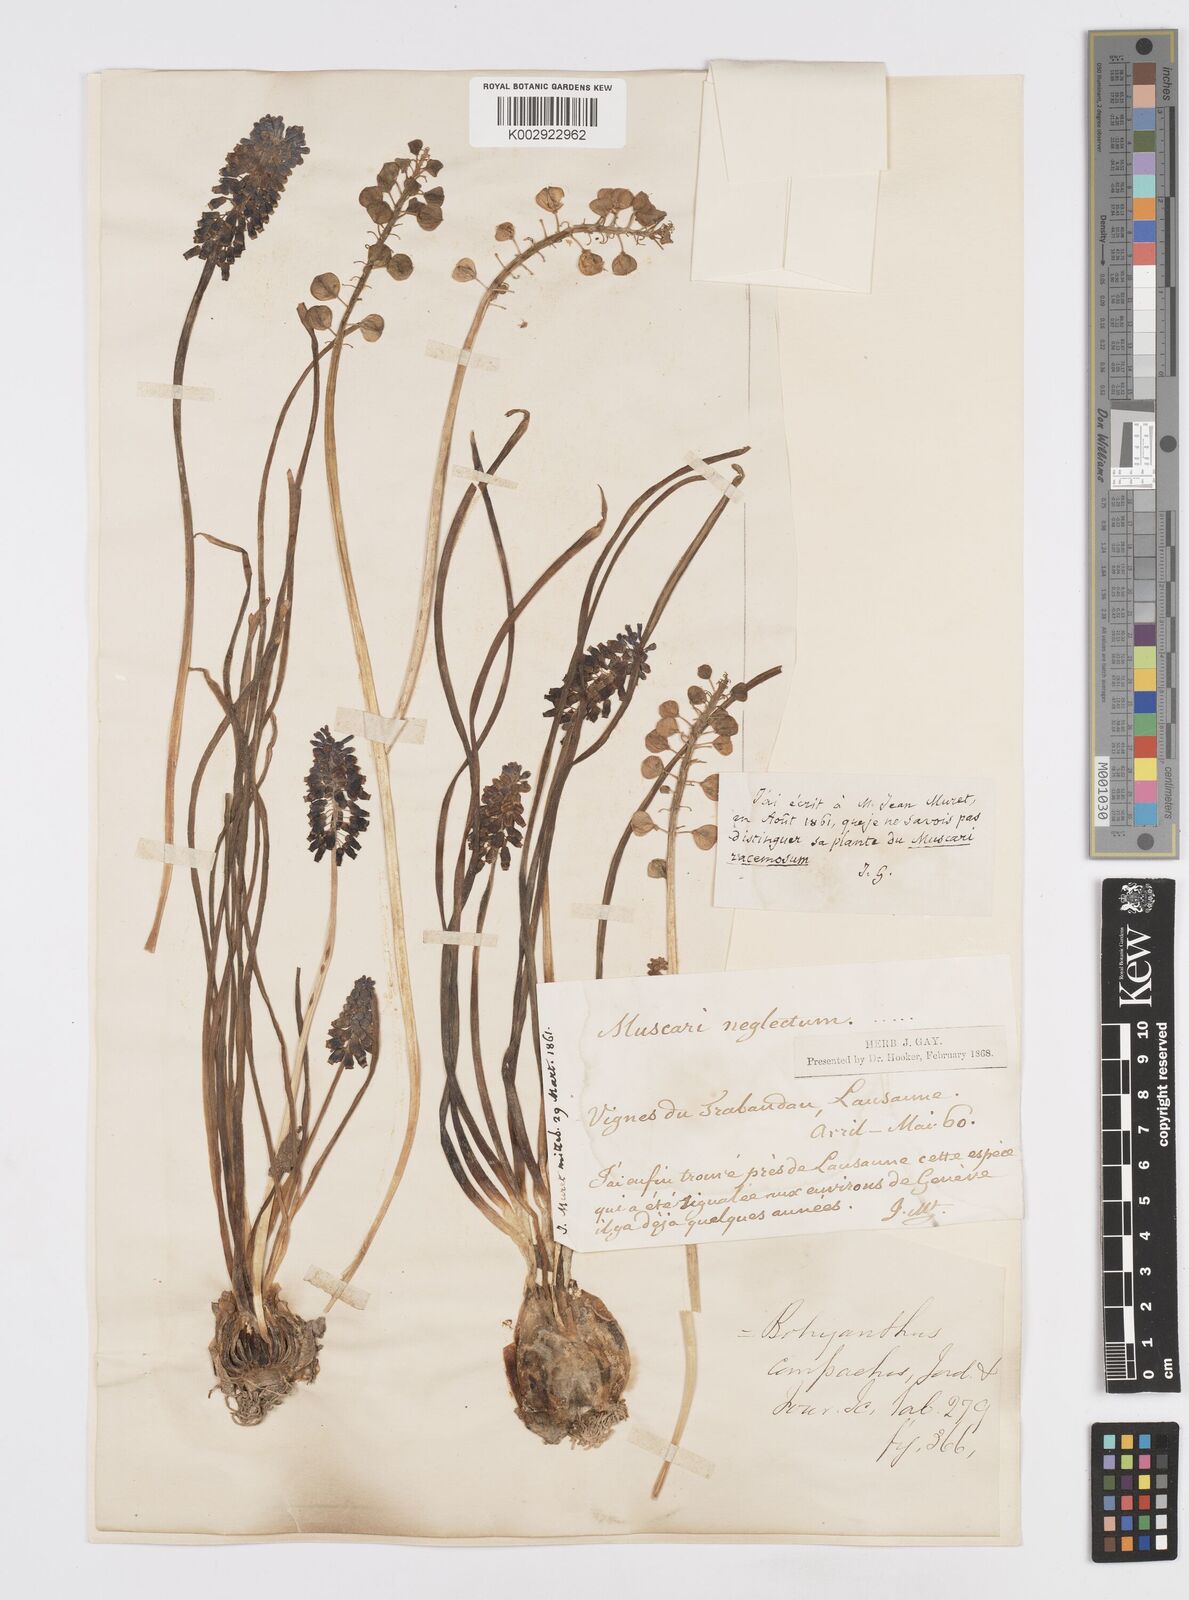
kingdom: Plantae
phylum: Tracheophyta
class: Liliopsida
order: Asparagales
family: Asparagaceae
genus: Muscari
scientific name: Muscari neglectum
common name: Grape-hyacinth
